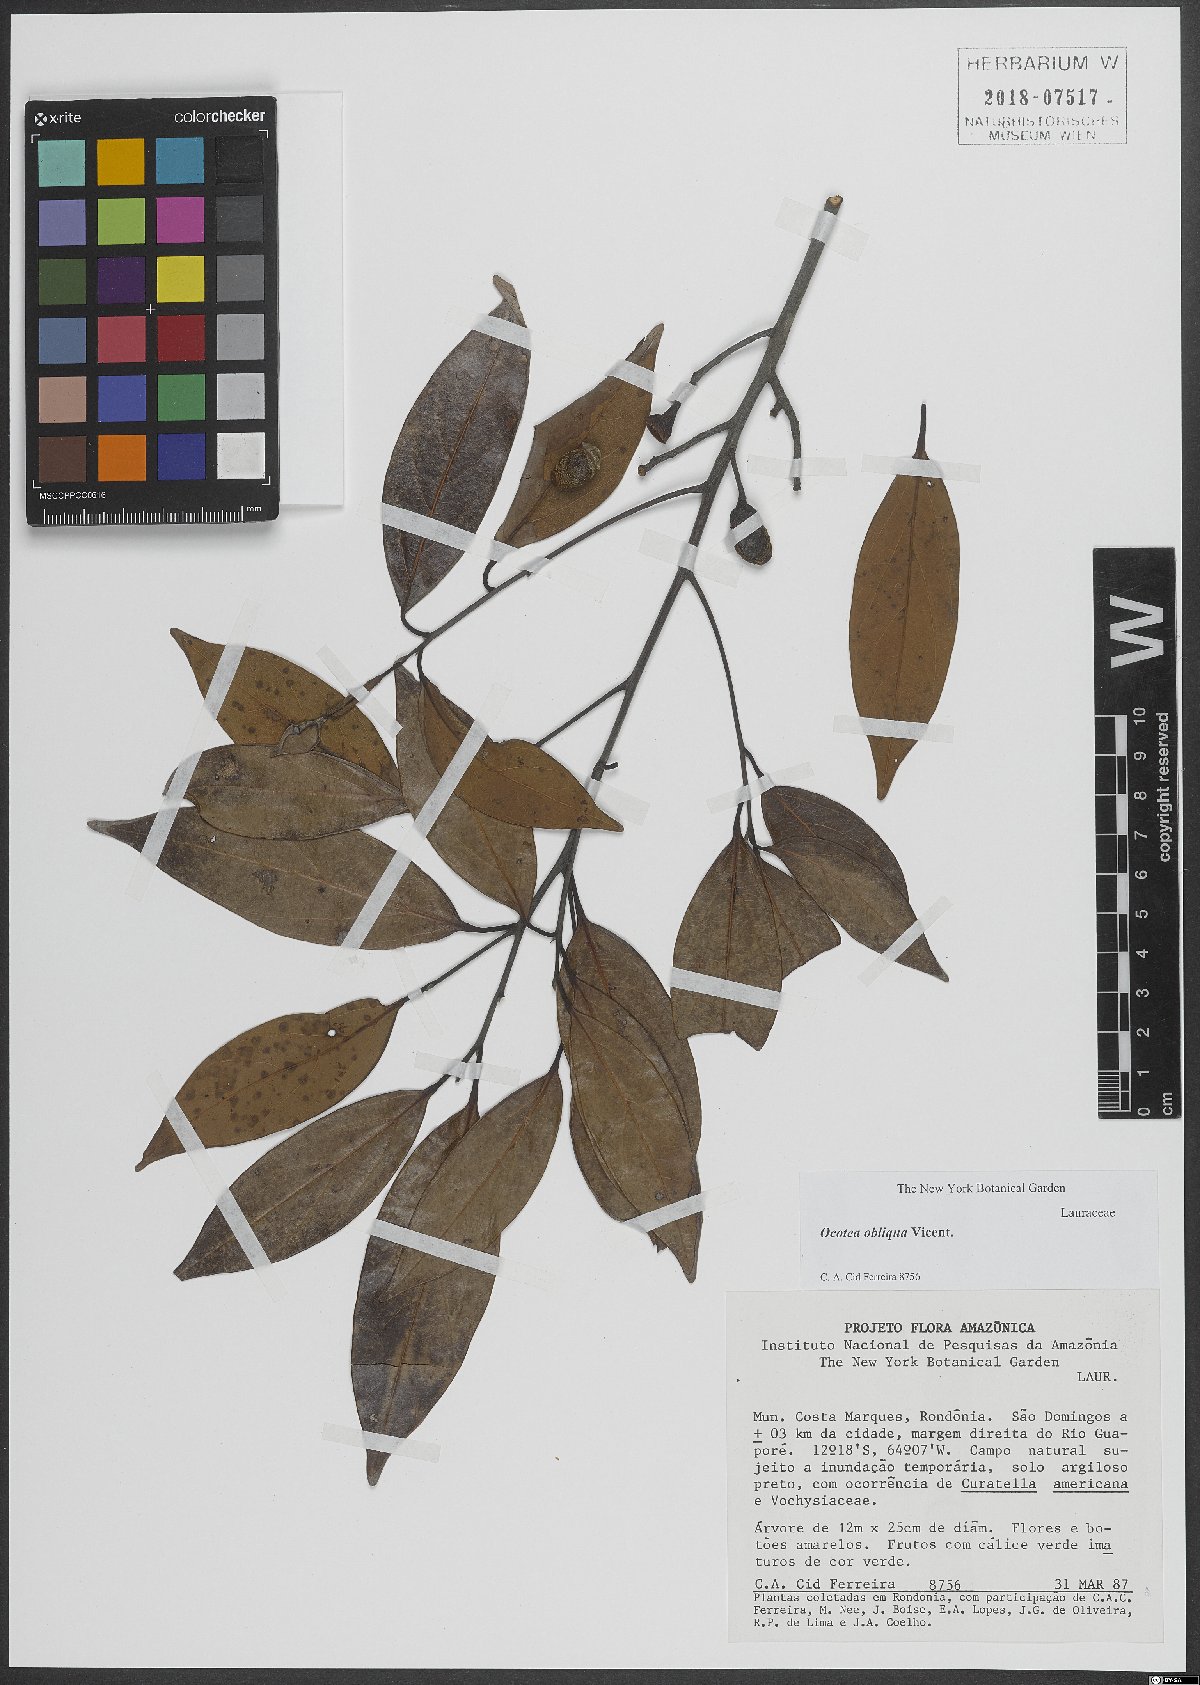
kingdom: Plantae
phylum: Tracheophyta
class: Magnoliopsida
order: Laurales
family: Lauraceae
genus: Ocotea
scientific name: Ocotea obliqua
